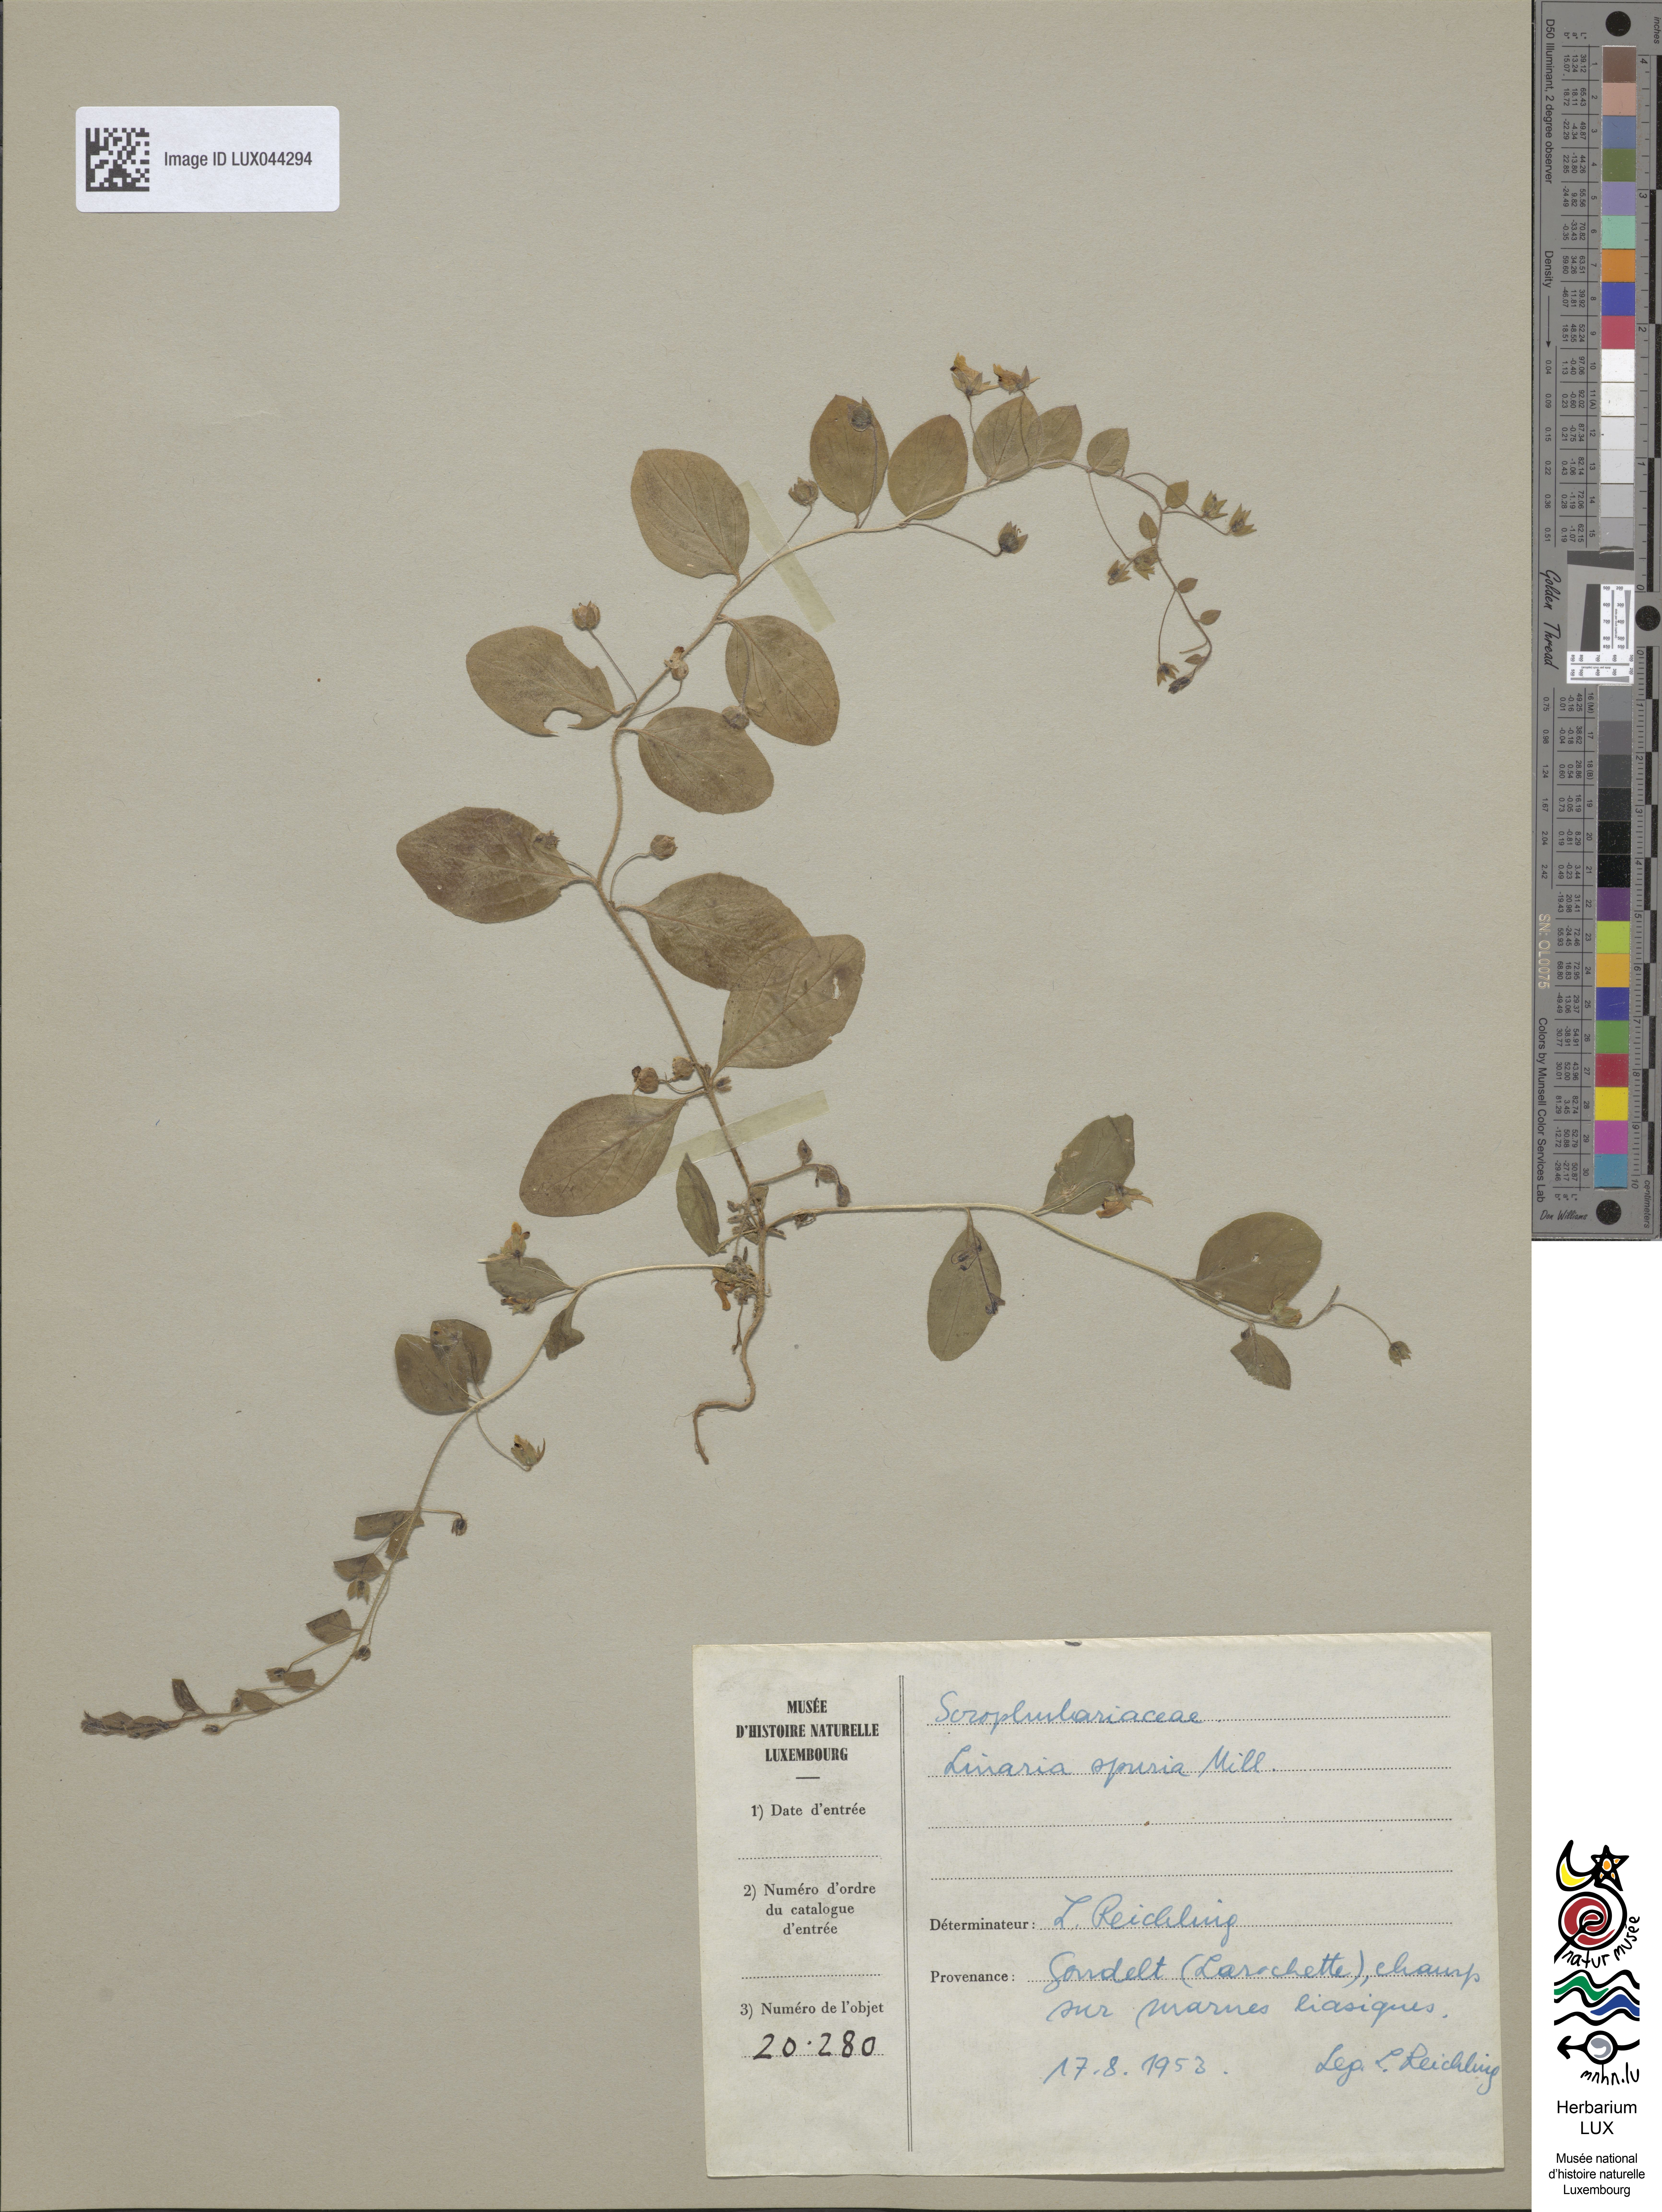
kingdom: Plantae
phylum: Tracheophyta
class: Magnoliopsida
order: Lamiales
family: Plantaginaceae
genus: Kickxia
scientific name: Kickxia spuria
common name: Round-leaved fluellen
